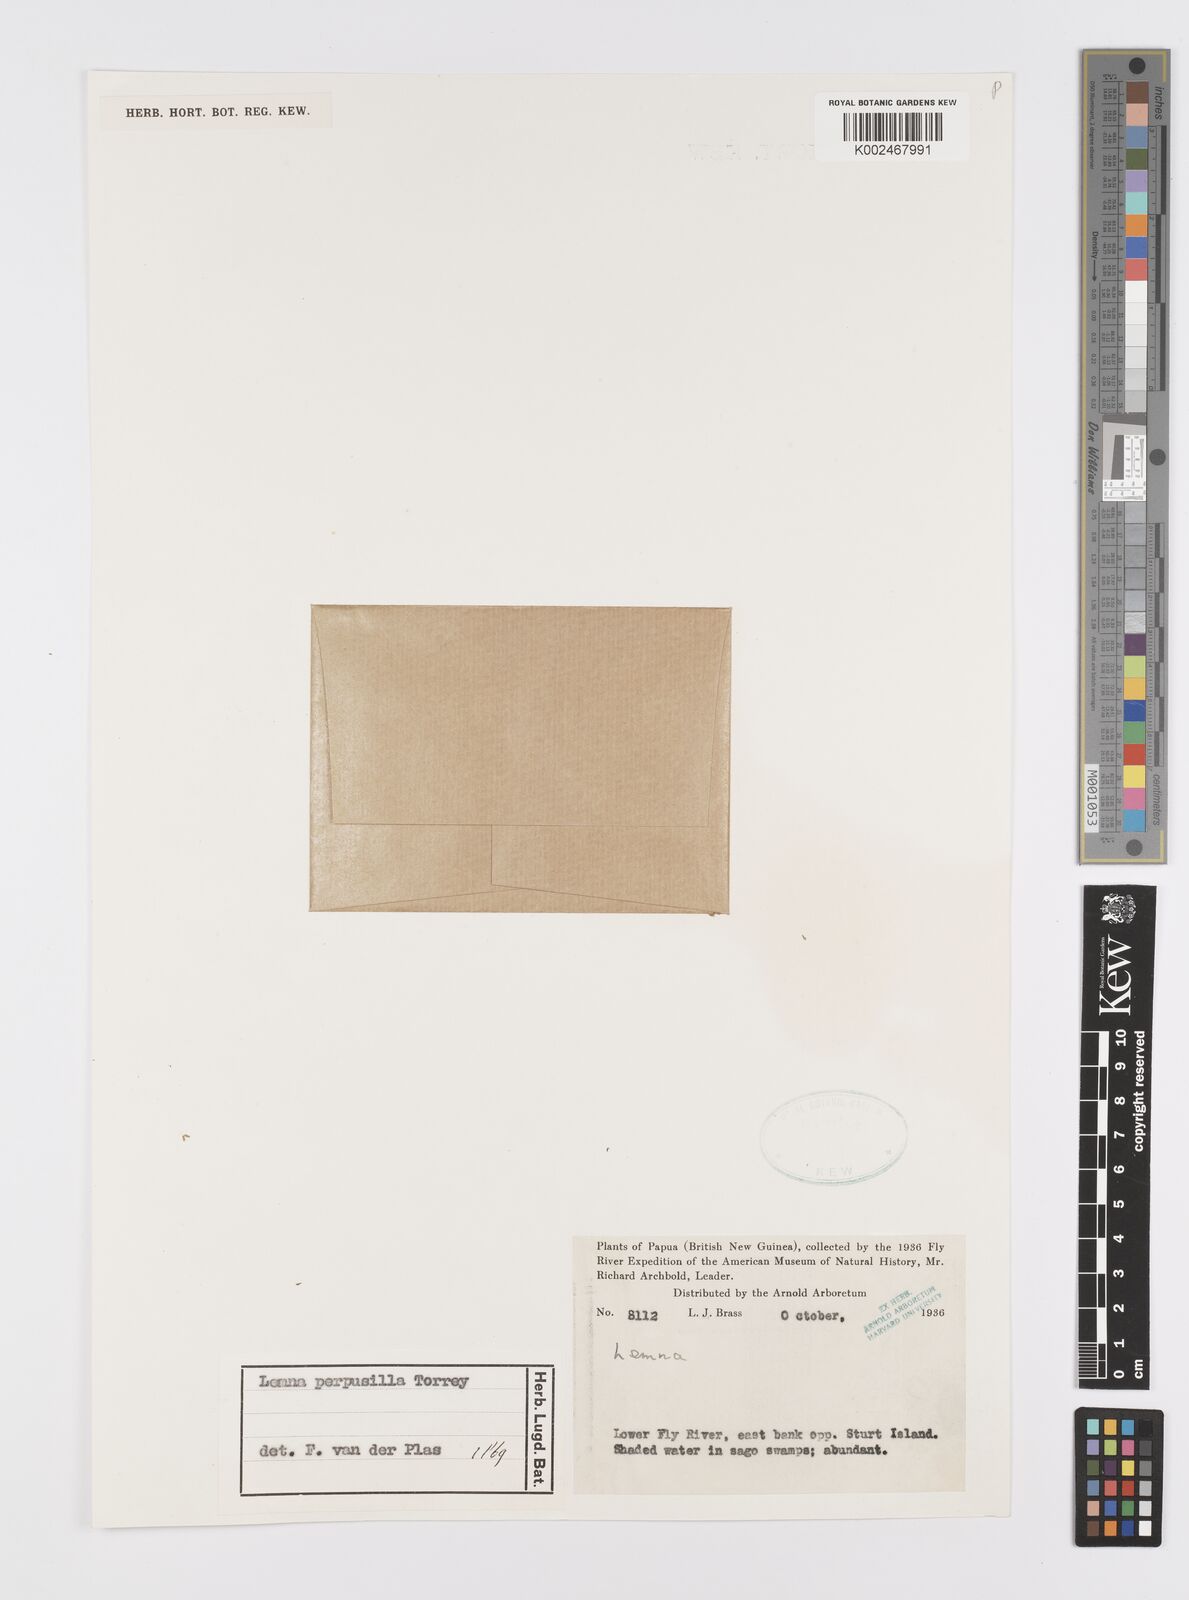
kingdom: Plantae
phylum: Tracheophyta
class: Liliopsida
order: Alismatales
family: Araceae
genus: Lemna
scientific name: Lemna perpusilla
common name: Duckweed
